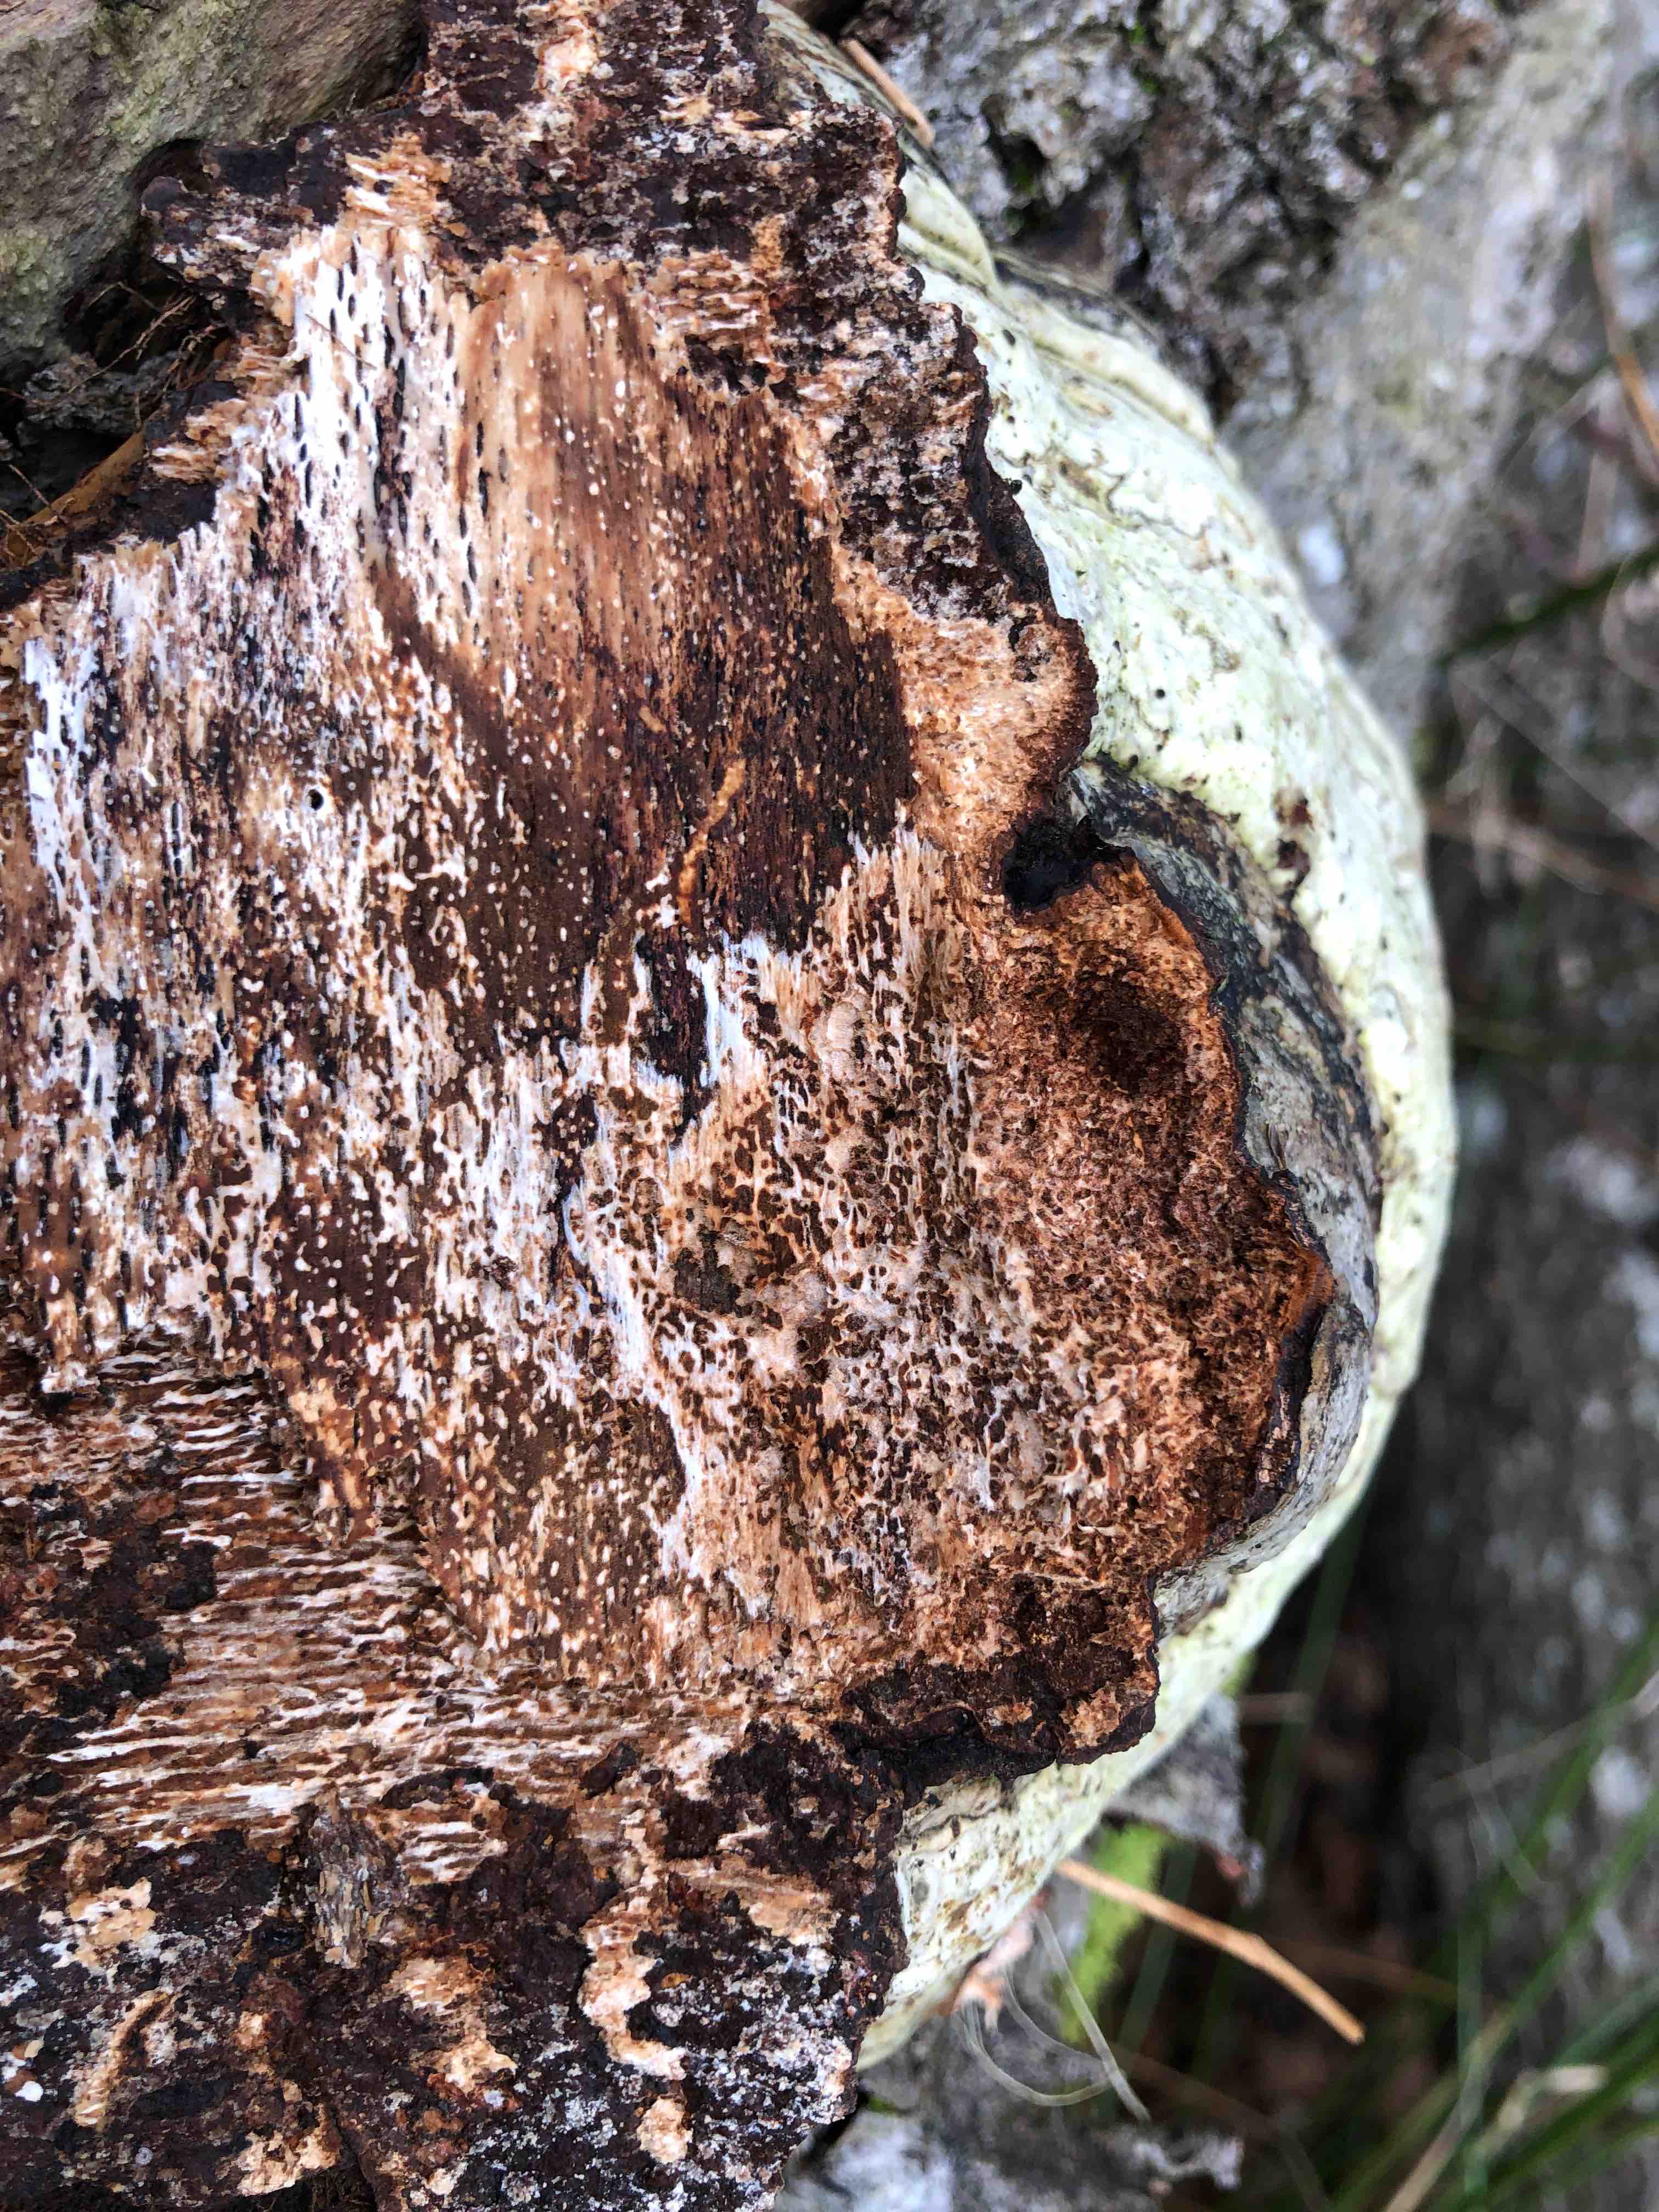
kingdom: Fungi
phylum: Basidiomycota
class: Agaricomycetes
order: Polyporales
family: Polyporaceae
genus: Fomes
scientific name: Fomes fomentarius
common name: tøndersvamp
